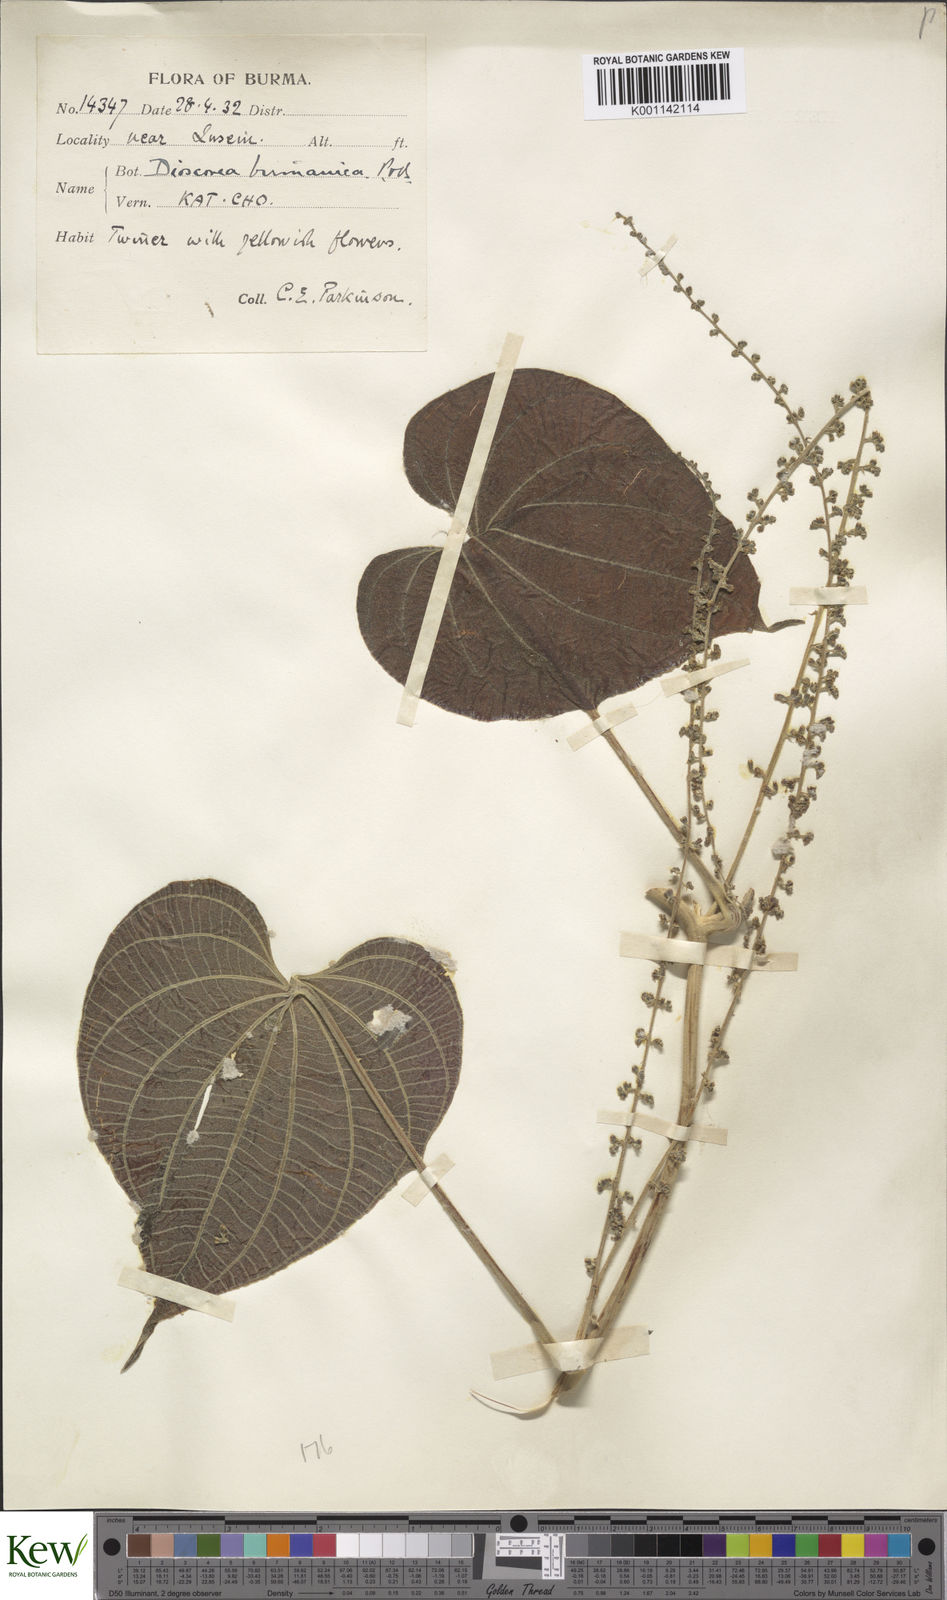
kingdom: Plantae
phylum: Tracheophyta
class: Liliopsida
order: Dioscoreales
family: Dioscoreaceae
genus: Dioscorea
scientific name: Dioscorea birmanica
